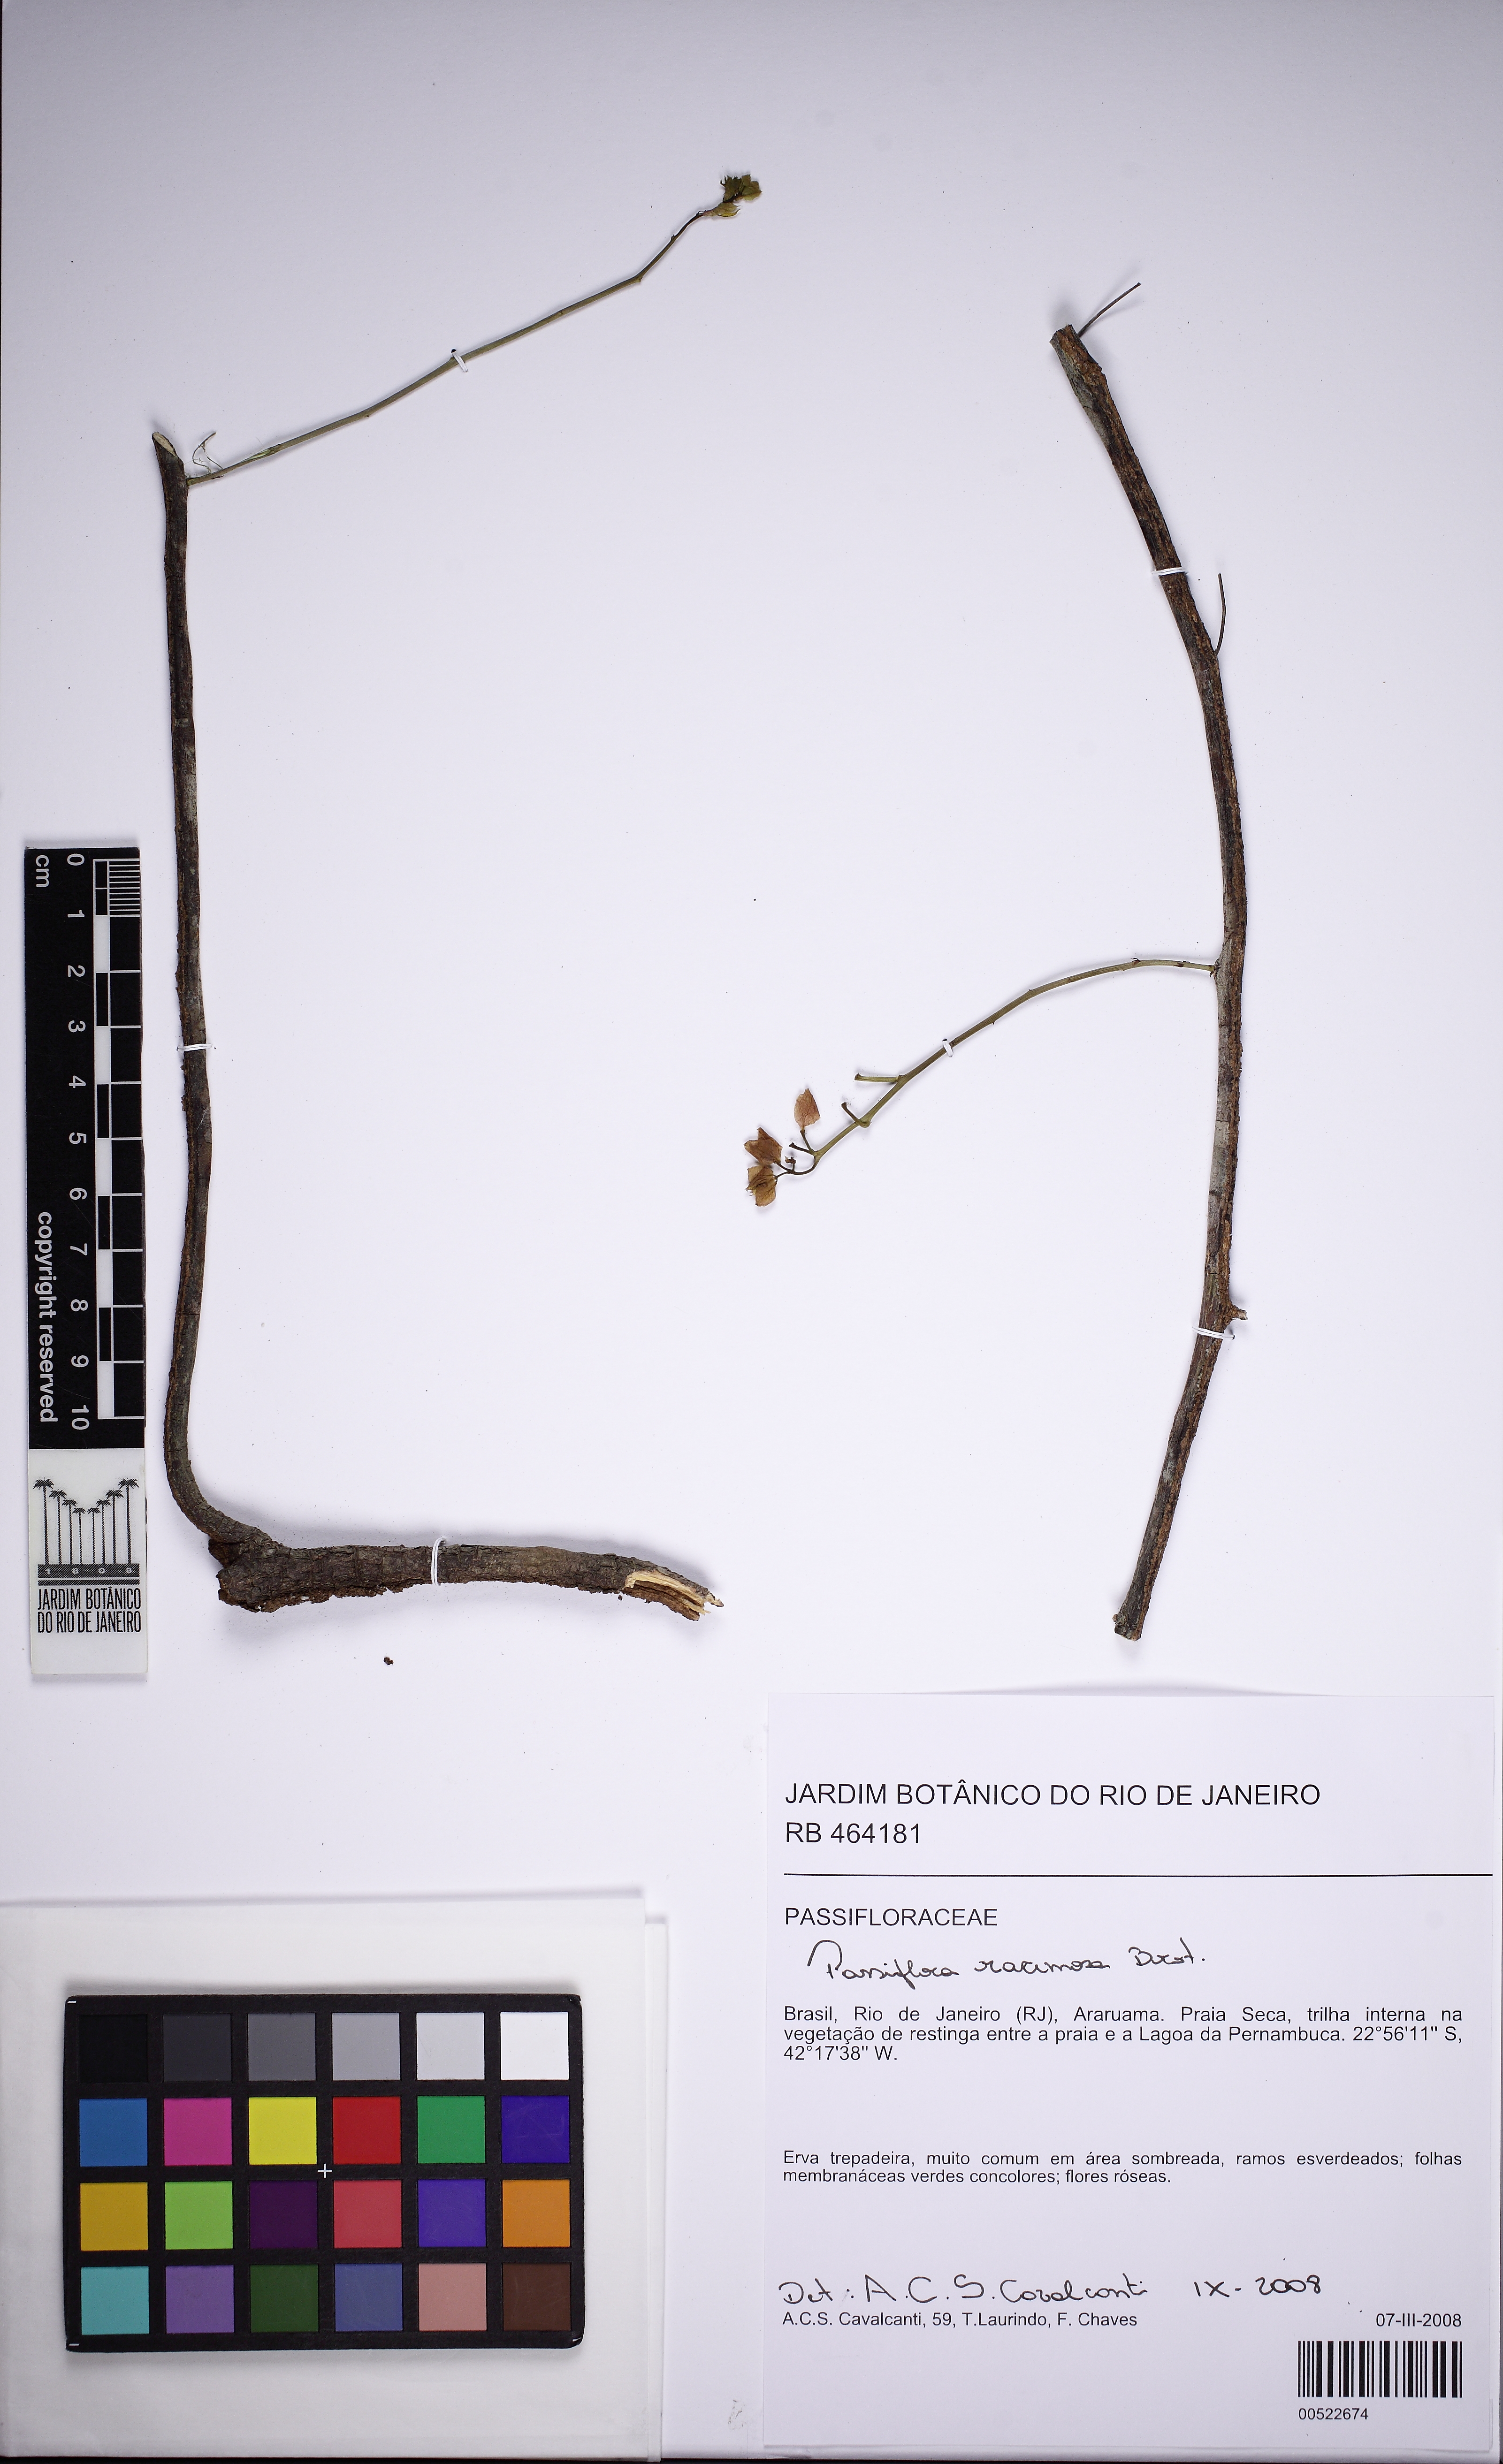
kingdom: Plantae
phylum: Tracheophyta
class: Magnoliopsida
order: Malpighiales
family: Passifloraceae
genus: Passiflora
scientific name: Passiflora racemosa
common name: Red passionflower
